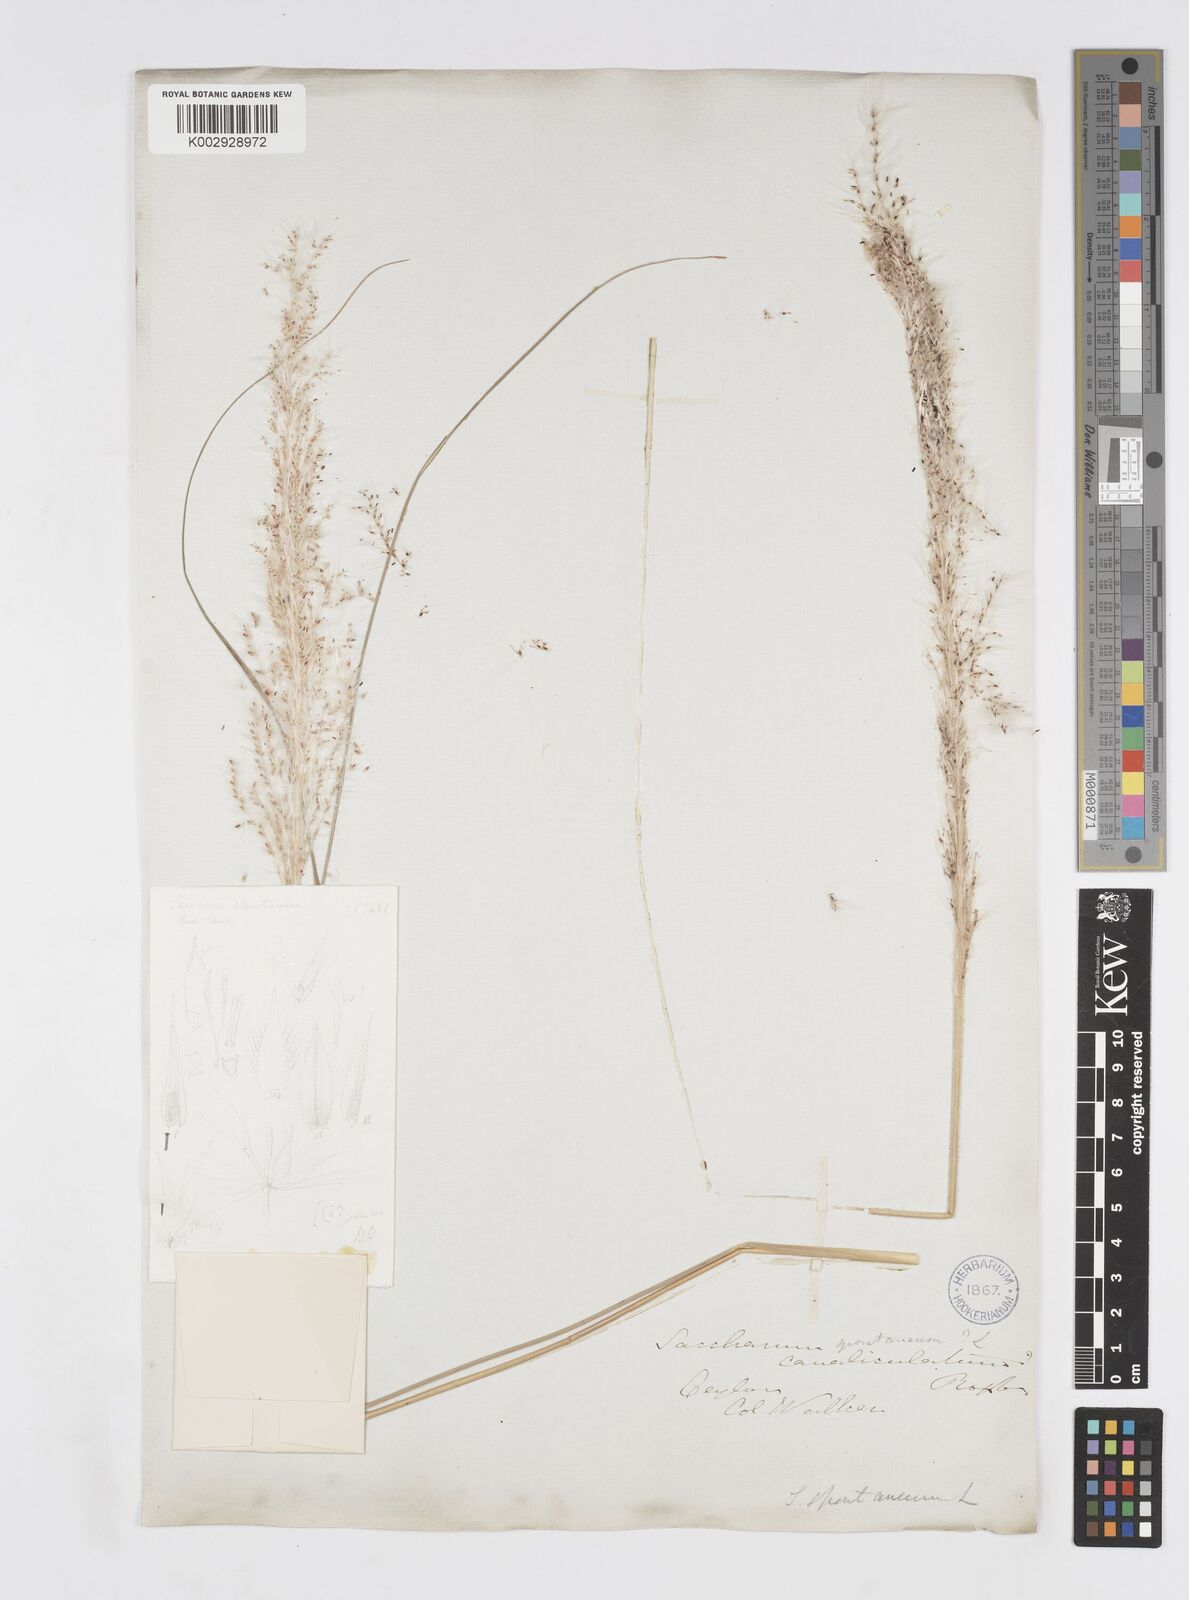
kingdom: Plantae
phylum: Tracheophyta
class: Liliopsida
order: Poales
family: Poaceae
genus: Saccharum
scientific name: Saccharum spontaneum
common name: Wild sugarcane
